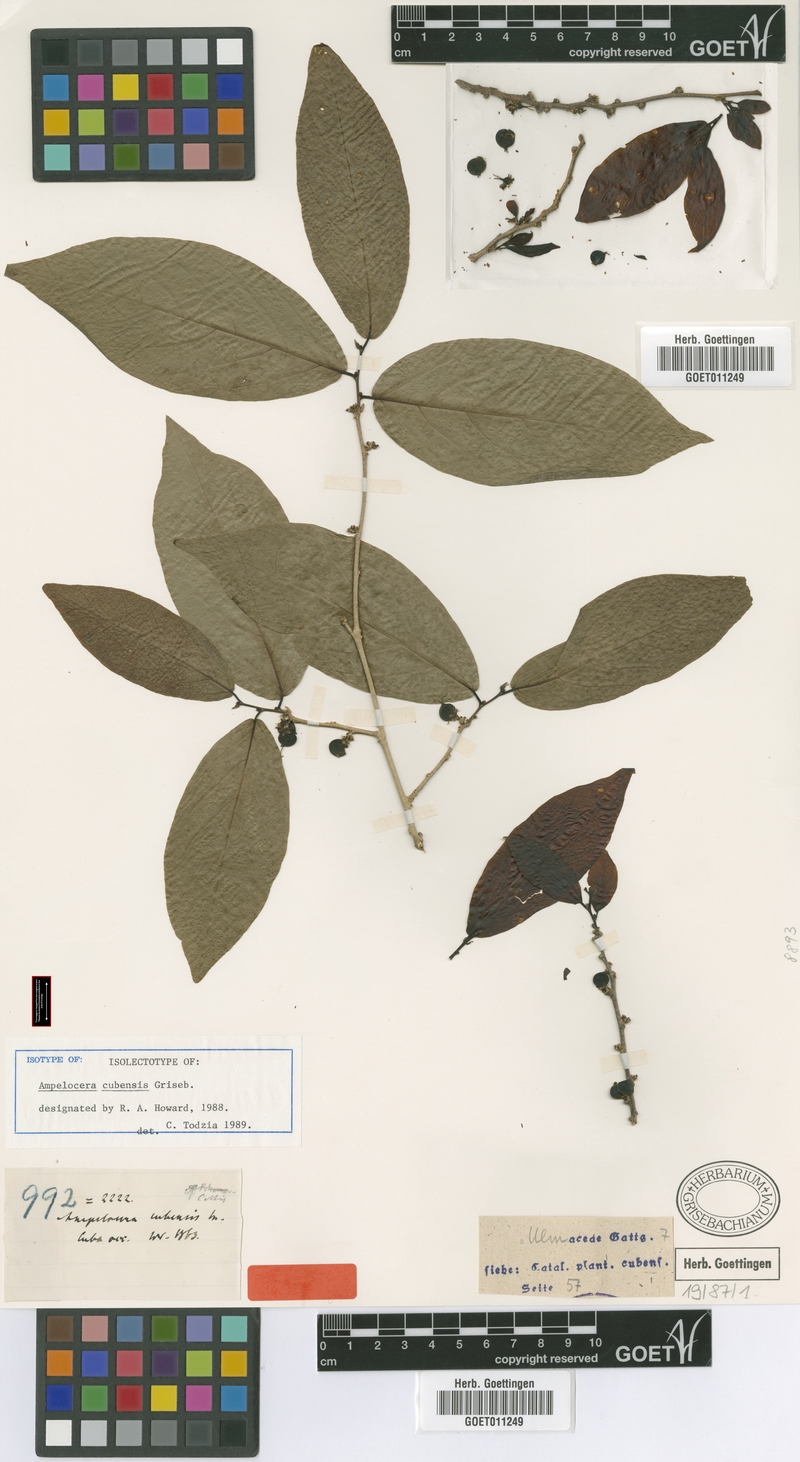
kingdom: Plantae
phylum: Tracheophyta
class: Magnoliopsida
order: Rosales
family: Cannabaceae
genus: Ampelocera
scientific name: Ampelocera cubensis
